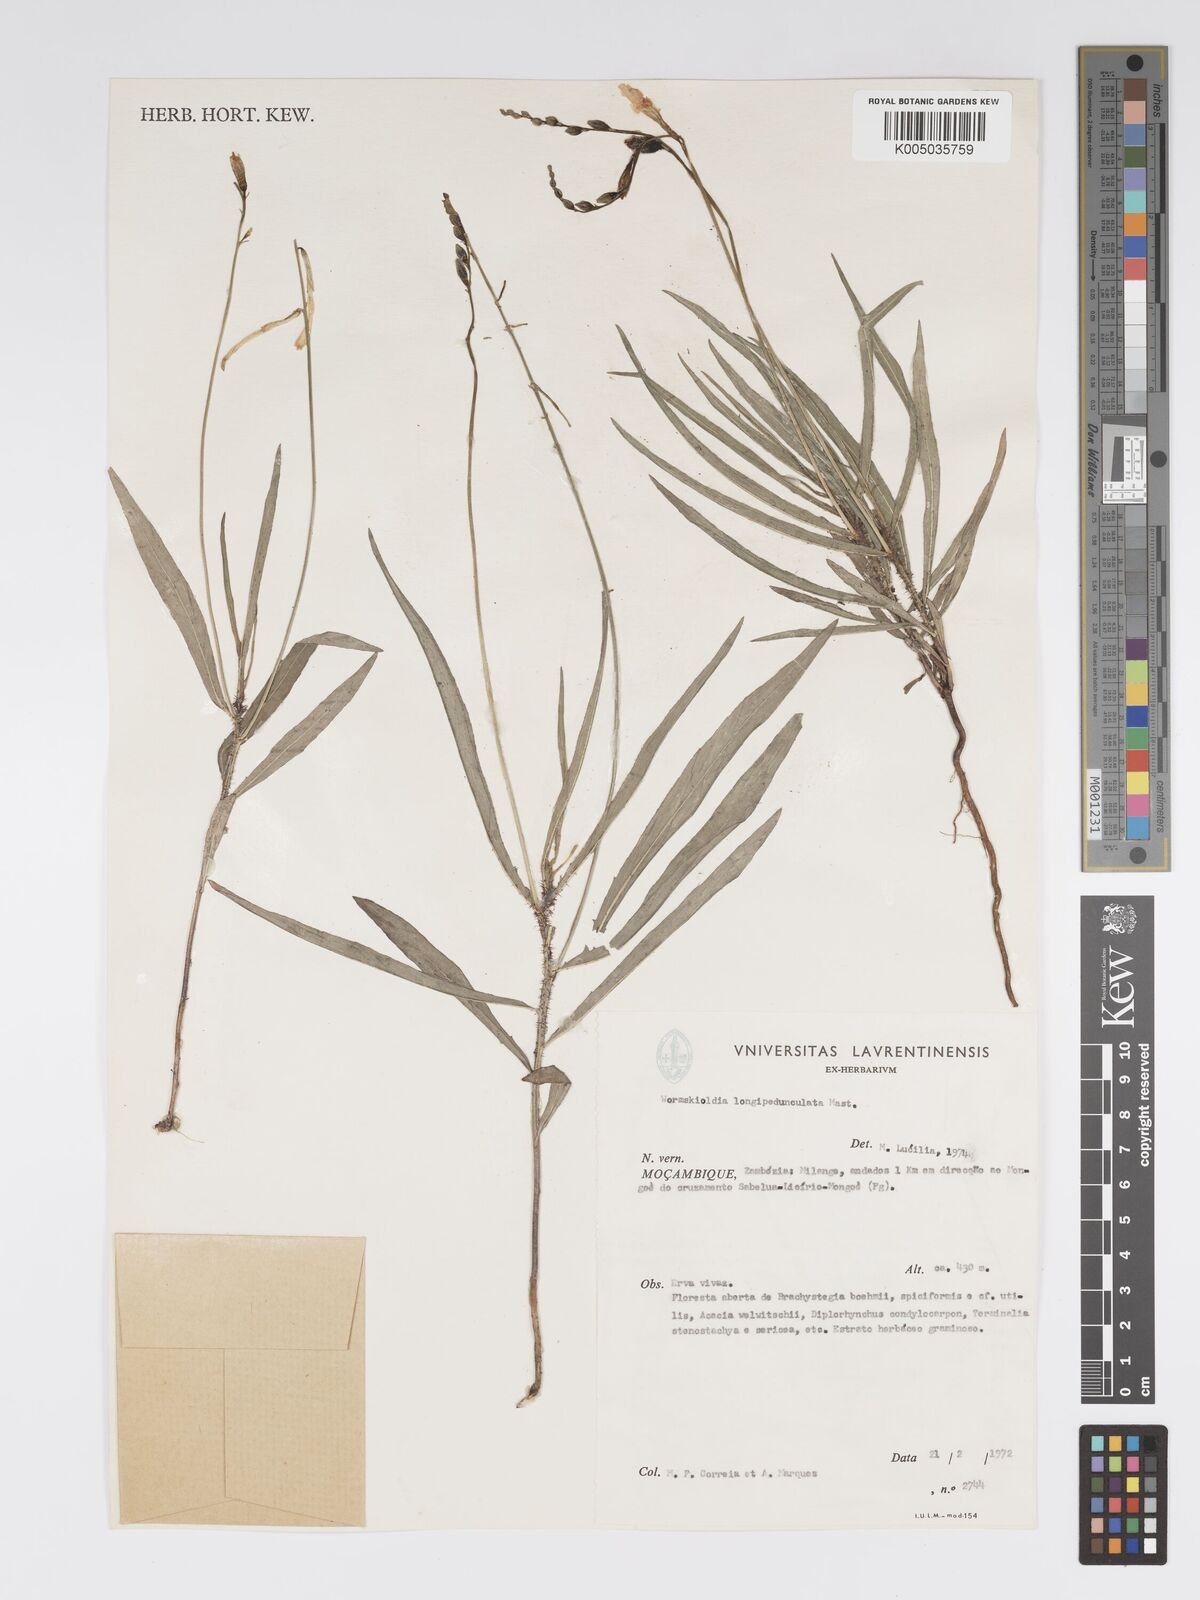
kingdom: Plantae
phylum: Tracheophyta
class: Magnoliopsida
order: Malpighiales
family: Turneraceae
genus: Tricliceras
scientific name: Tricliceras longepedunculatum
